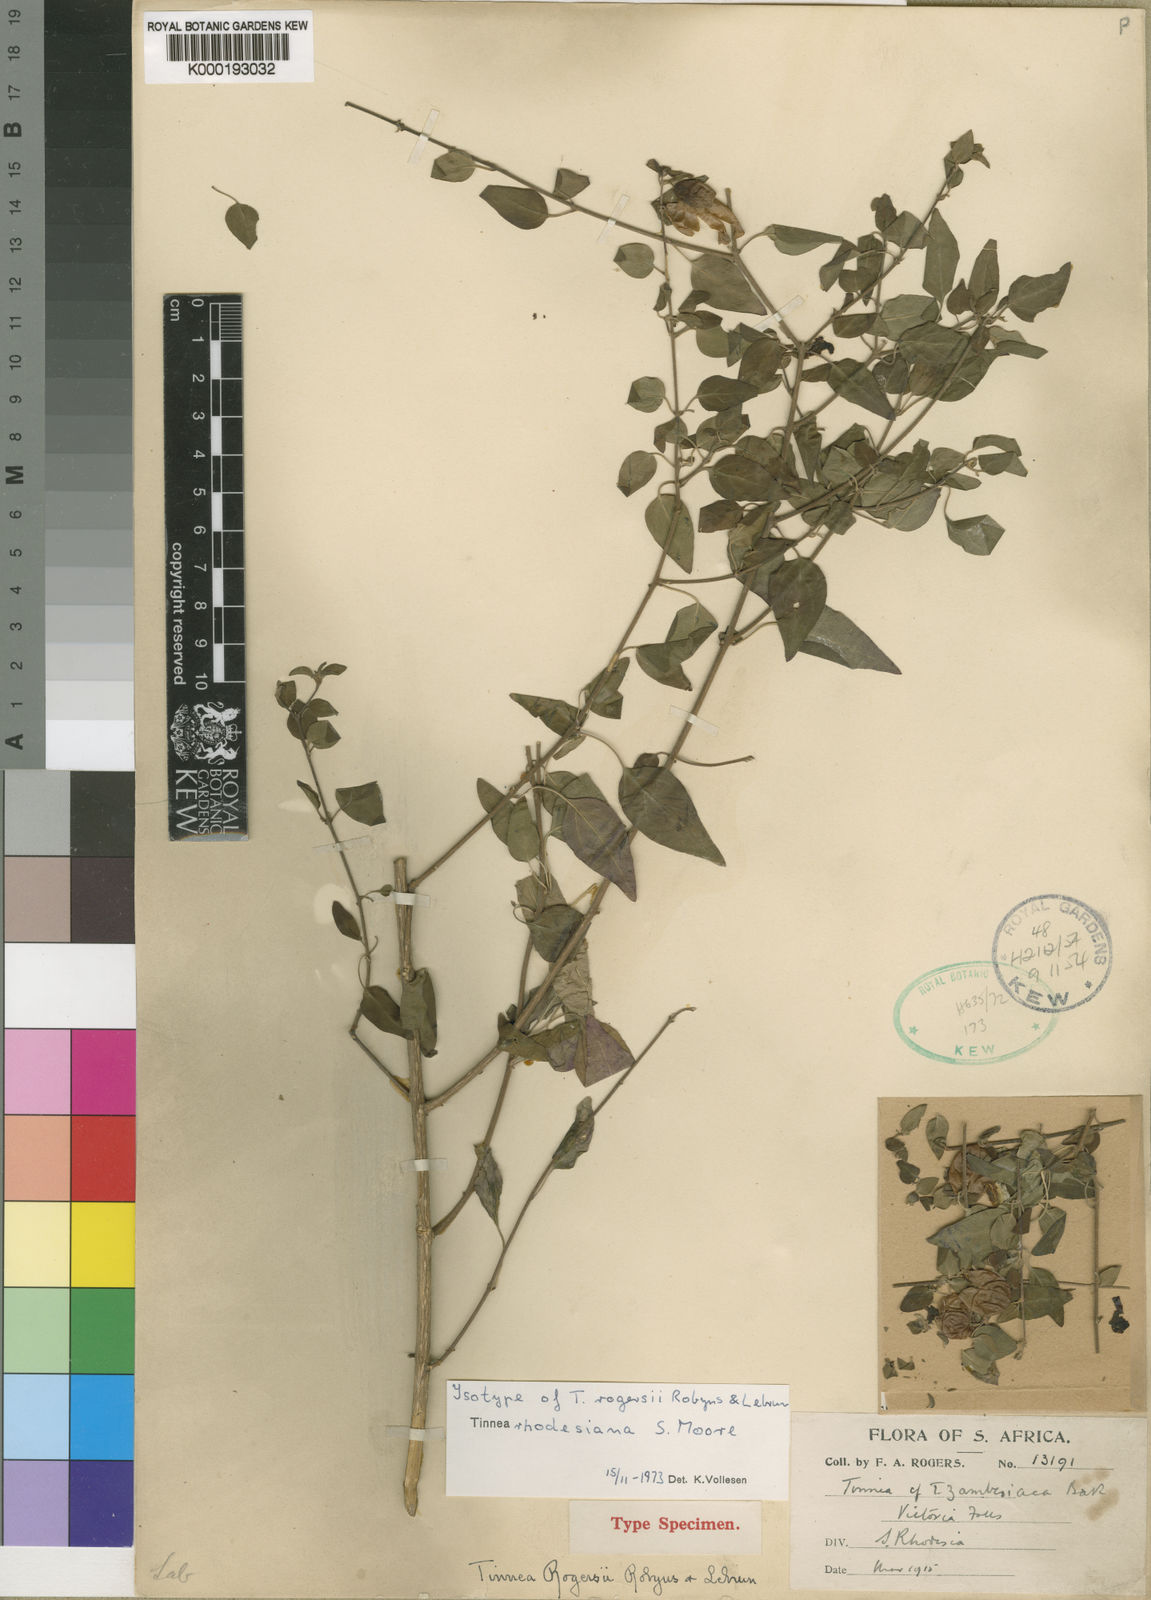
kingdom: Plantae
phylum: Tracheophyta
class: Magnoliopsida
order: Lamiales
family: Lamiaceae
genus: Tinnea
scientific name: Tinnea rhodesiana
